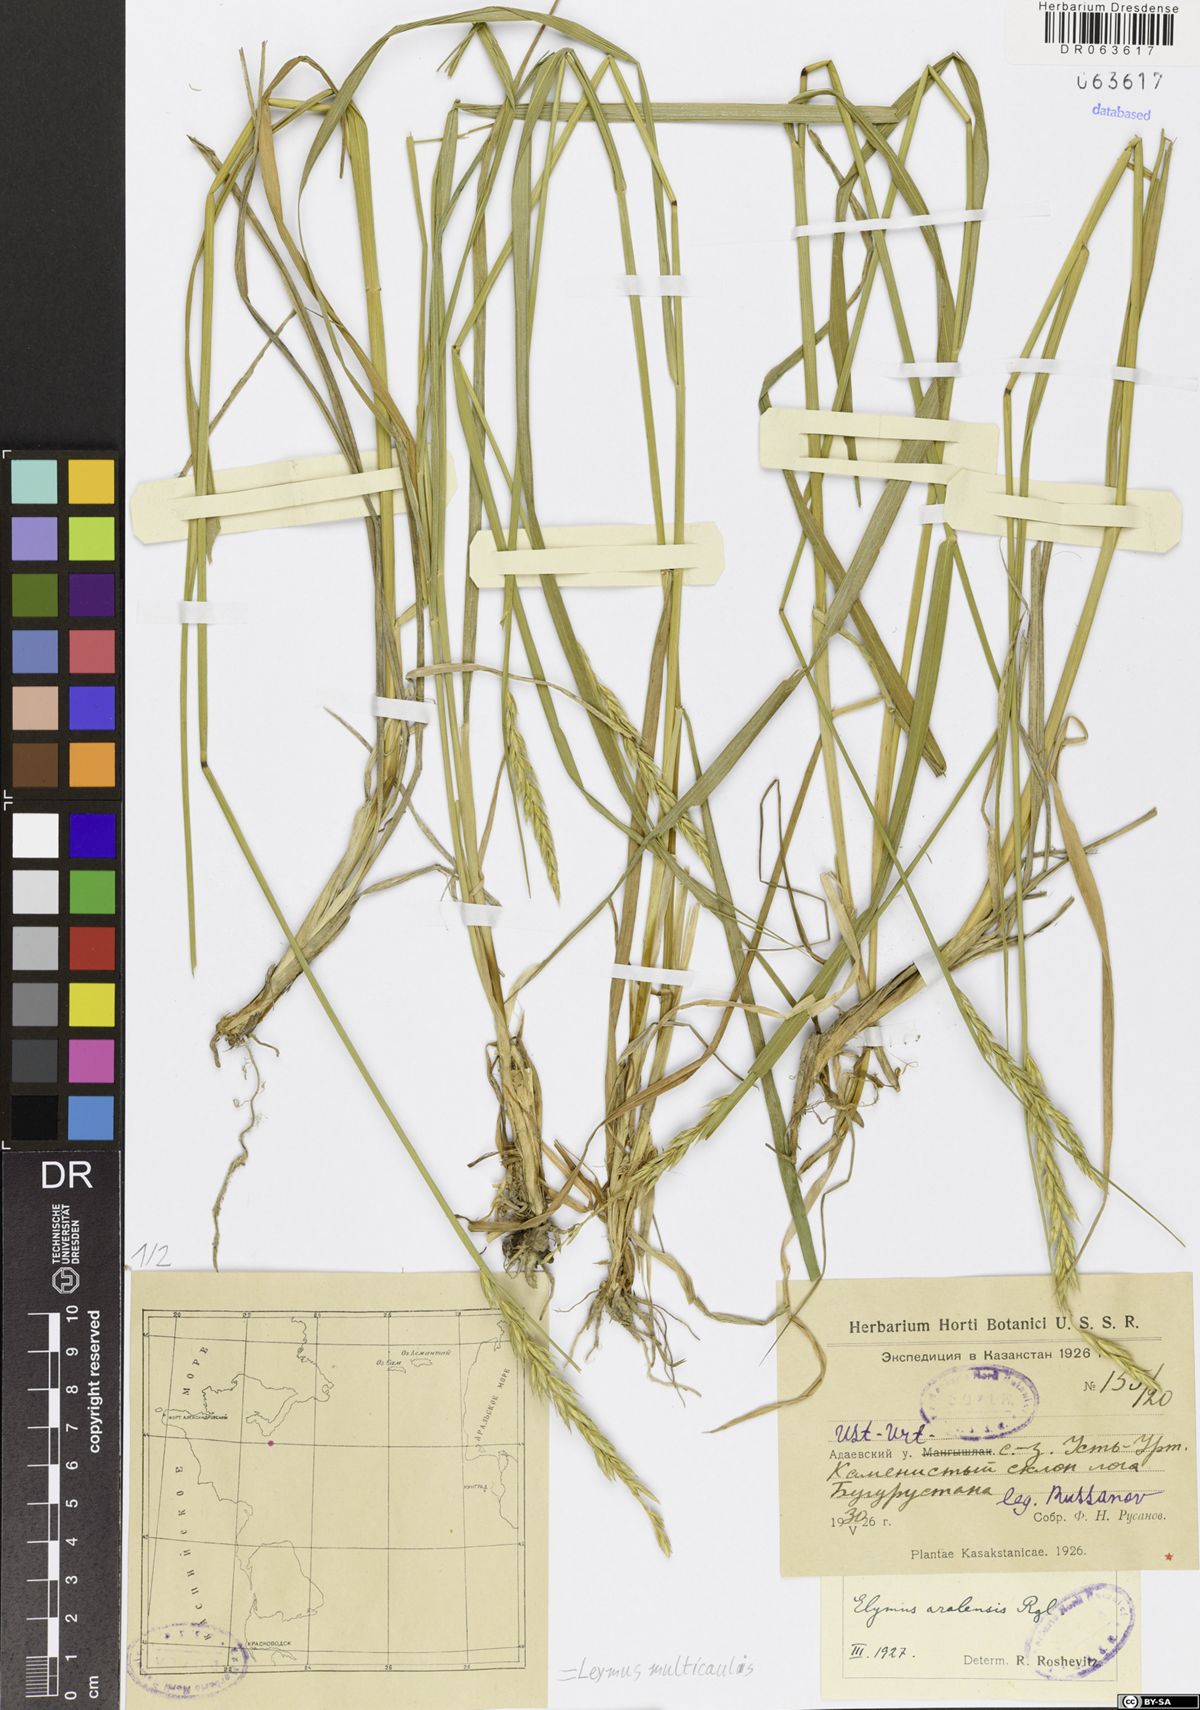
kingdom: Plantae
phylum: Tracheophyta
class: Liliopsida
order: Poales
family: Poaceae
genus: Leymus
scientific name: Leymus multicaulis
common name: Manystem wildrye
